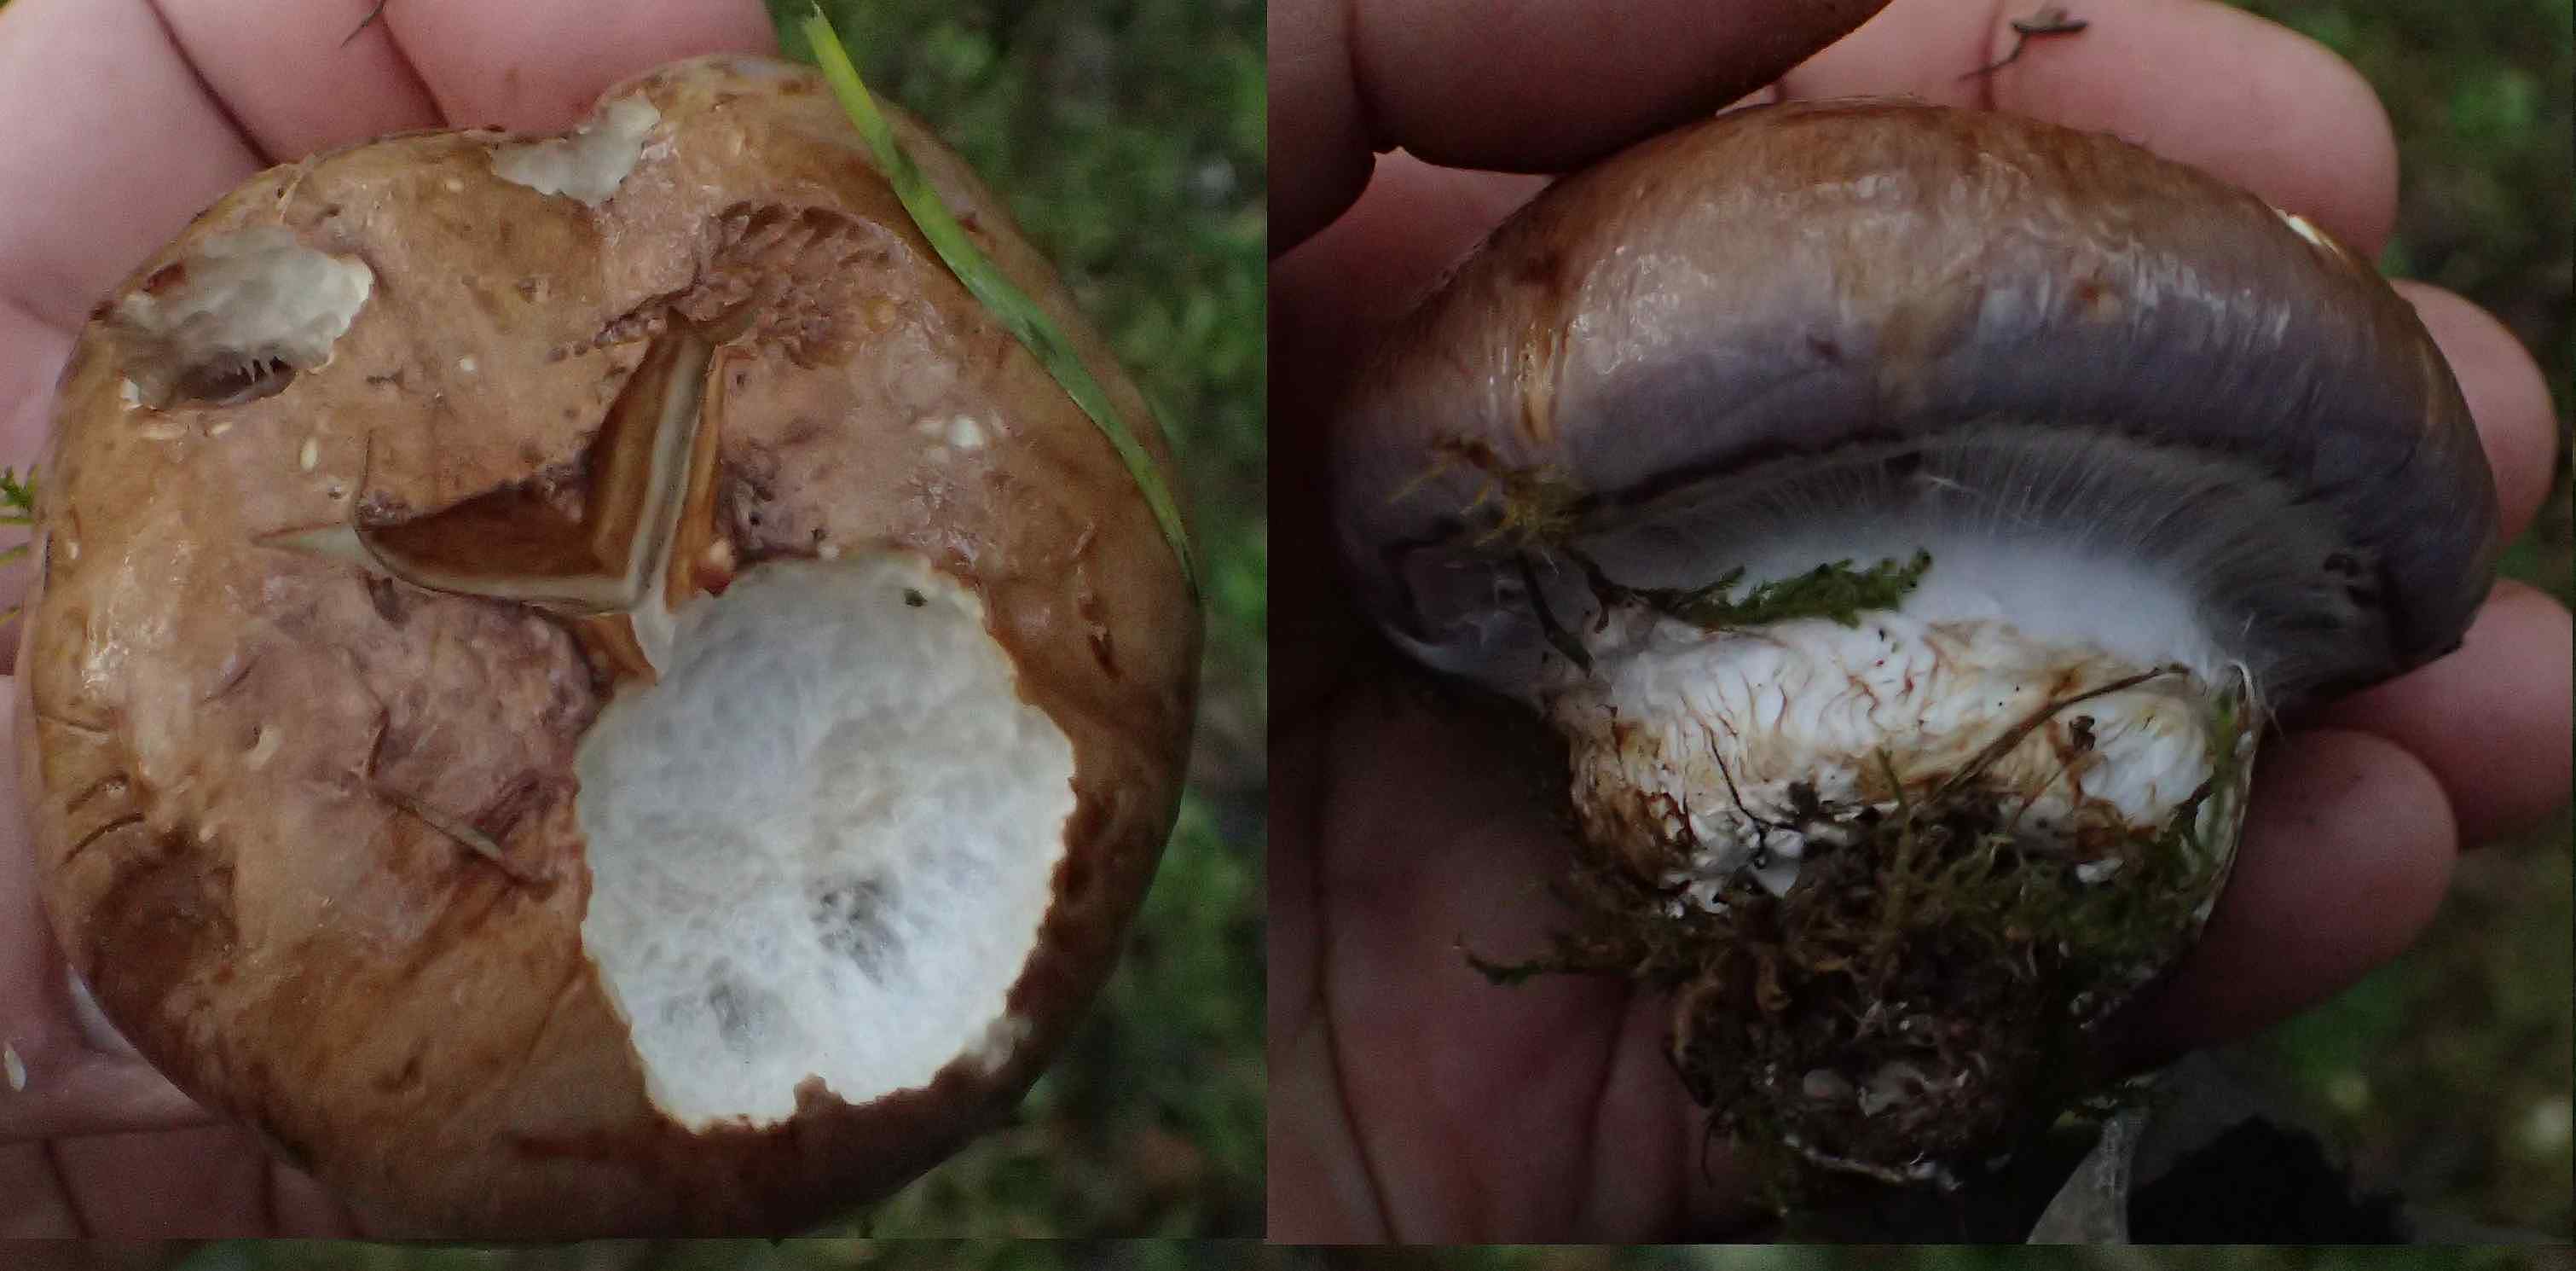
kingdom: Fungi
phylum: Basidiomycota
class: Agaricomycetes
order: Agaricales
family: Cortinariaceae
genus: Phlegmacium
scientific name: Phlegmacium balteatocumatile
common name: violettrådet slørhat
